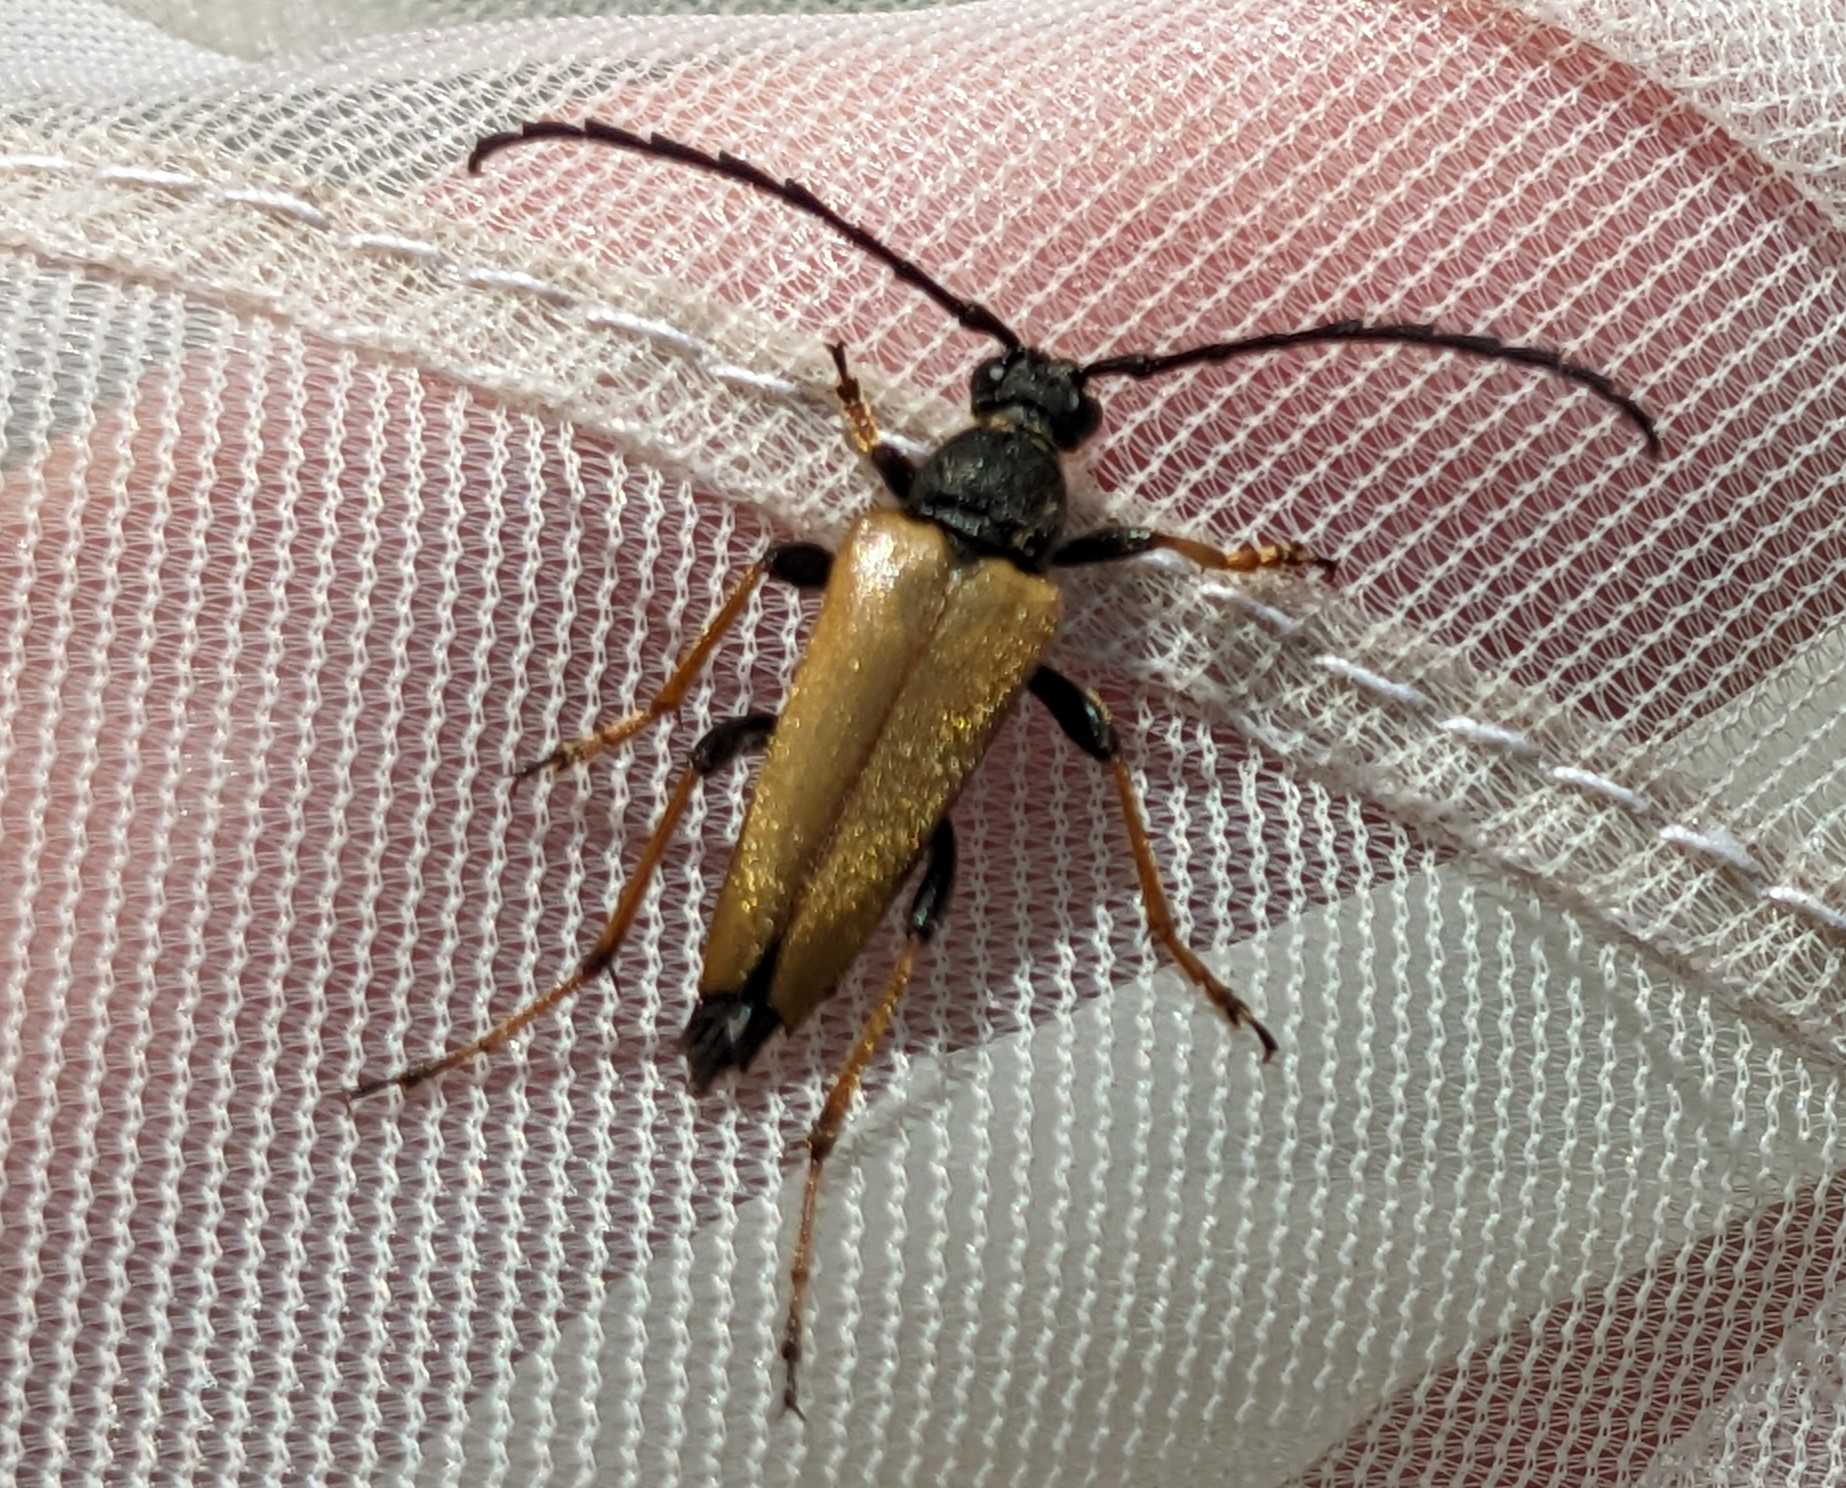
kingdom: Animalia
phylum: Arthropoda
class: Insecta
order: Coleoptera
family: Cerambycidae
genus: Stictoleptura
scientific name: Stictoleptura rubra
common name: Rød blomsterbuk
